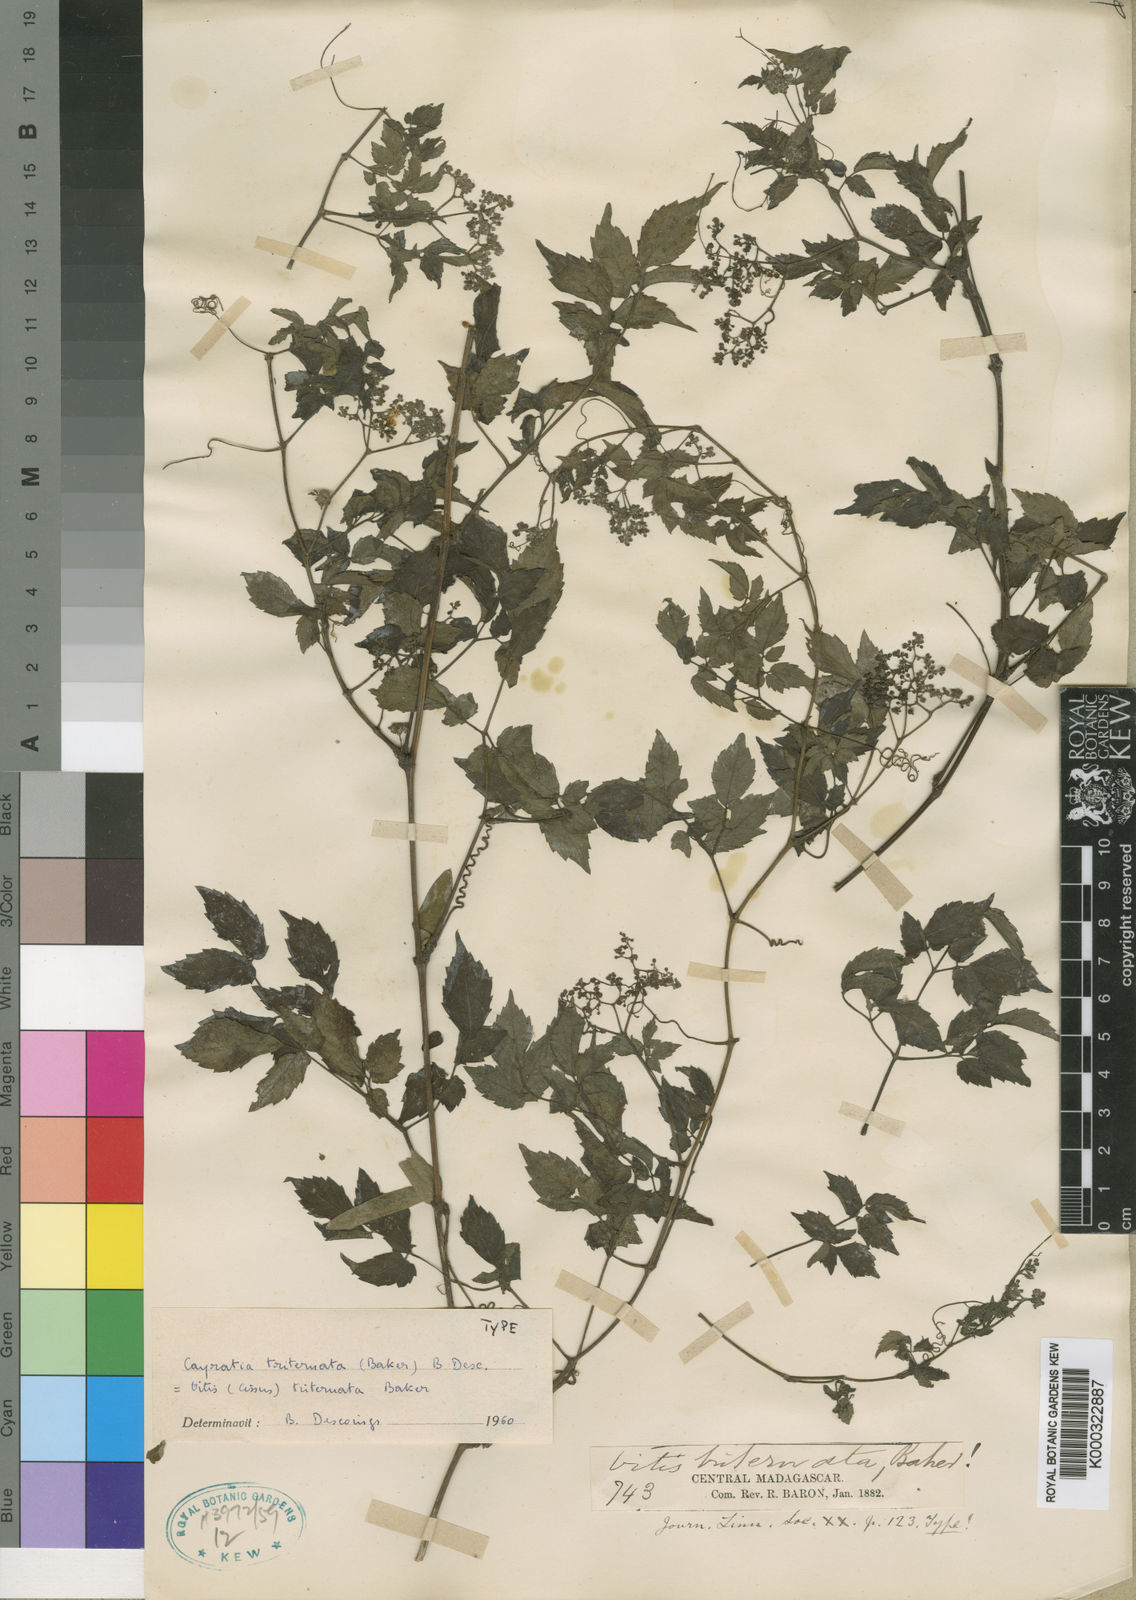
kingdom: Plantae
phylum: Tracheophyta
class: Magnoliopsida
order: Vitales
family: Vitaceae
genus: Afrocayratia
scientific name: Afrocayratia triternata
